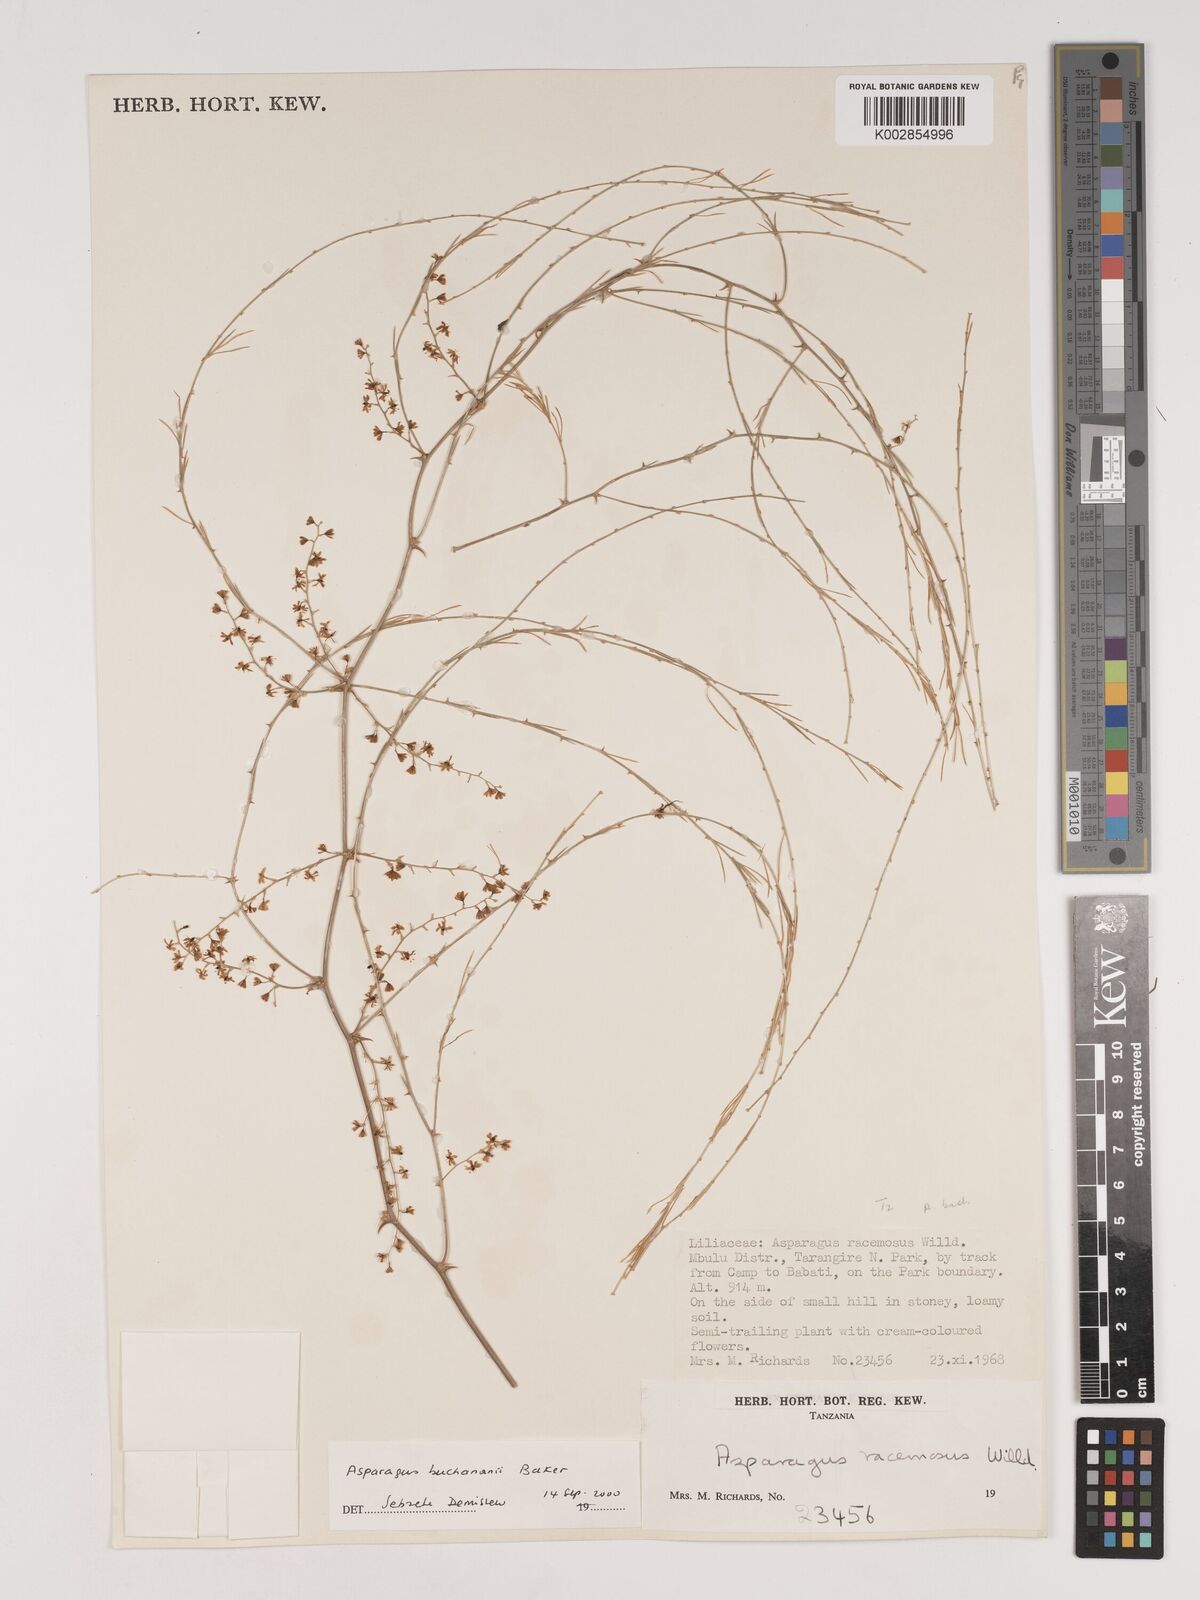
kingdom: Plantae
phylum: Tracheophyta
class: Liliopsida
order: Asparagales
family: Asparagaceae
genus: Asparagus
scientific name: Asparagus buchananii
